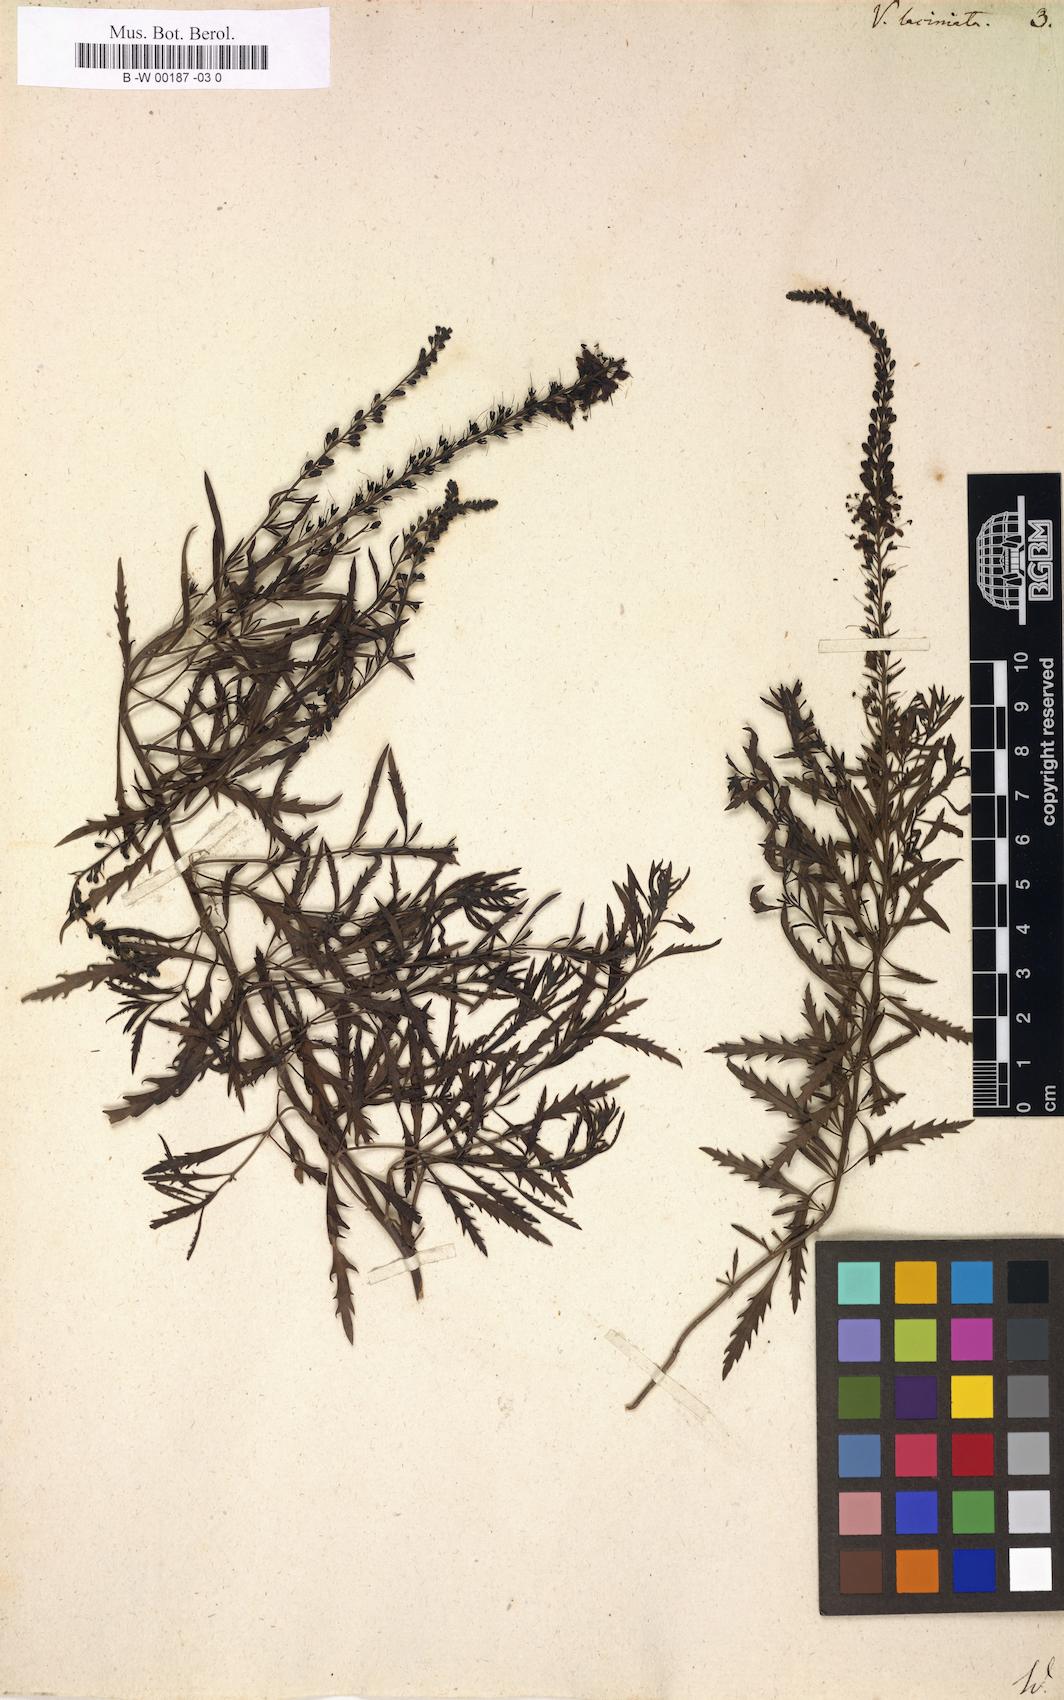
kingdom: Plantae
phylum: Tracheophyta
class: Magnoliopsida
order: Lamiales
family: Plantaginaceae
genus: Veronica
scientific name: Veronica laciniata
